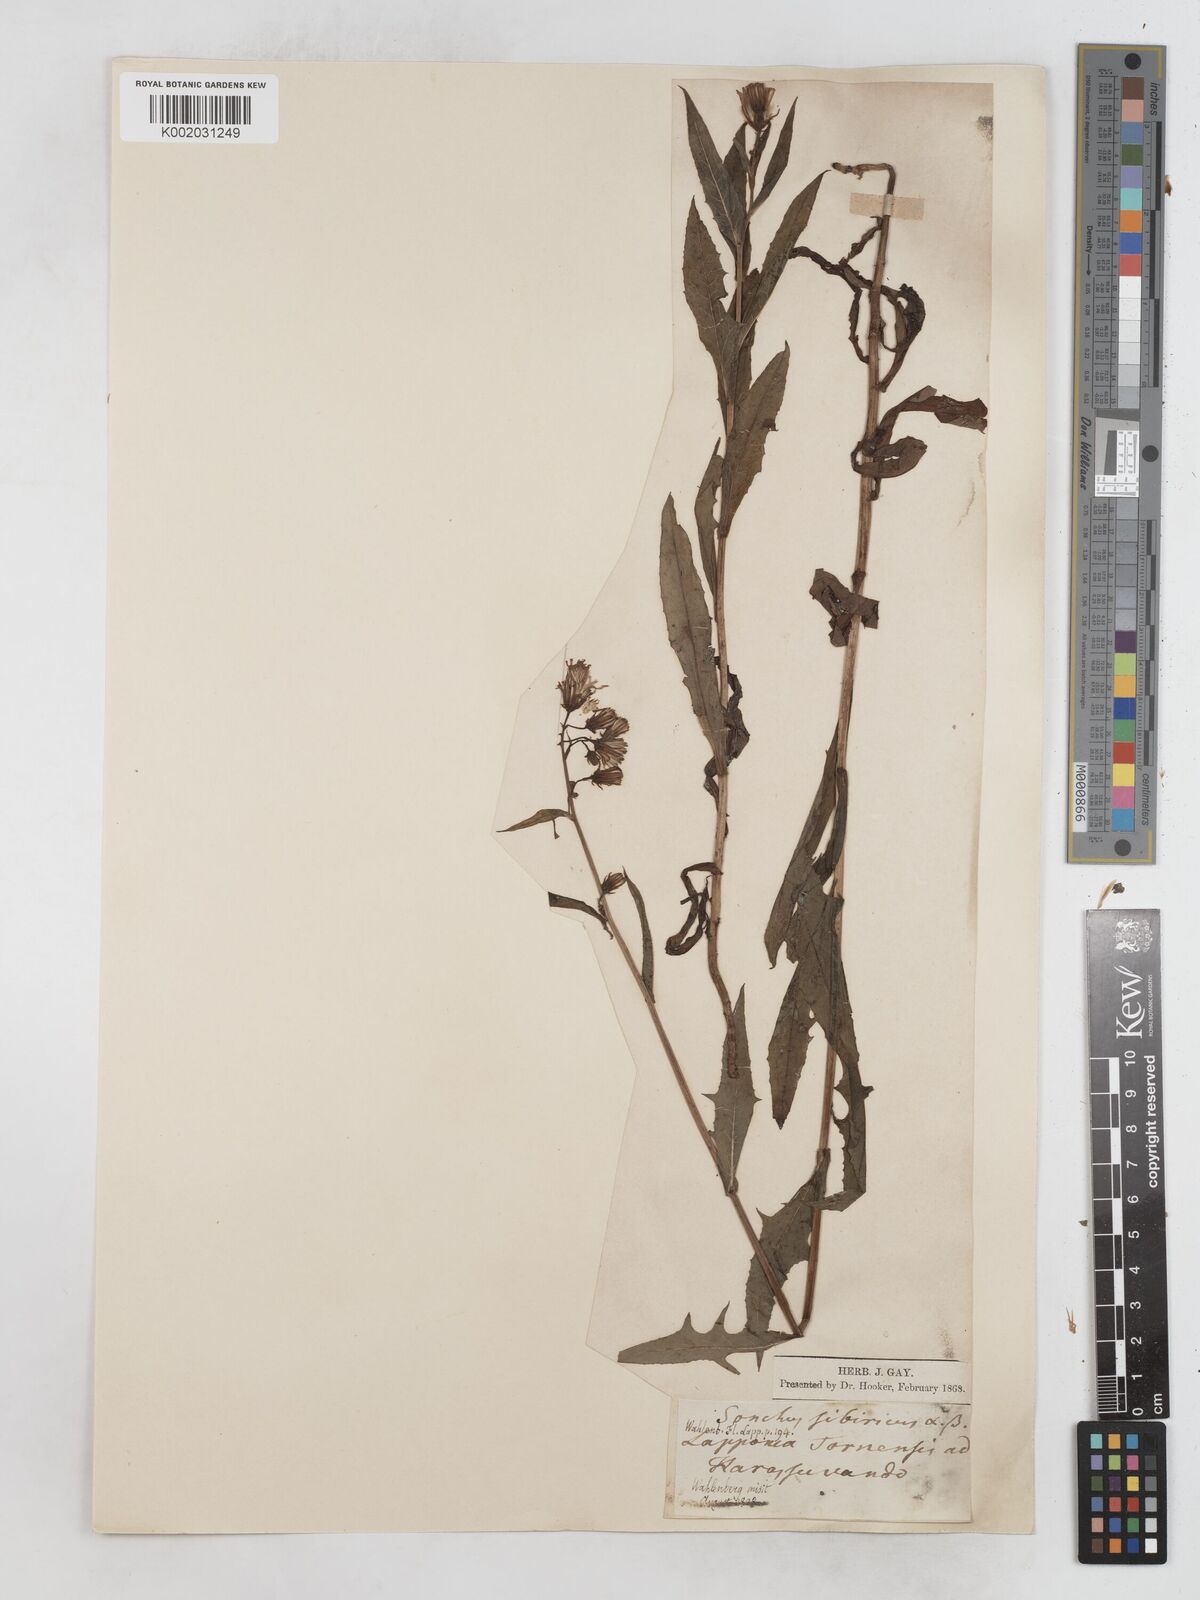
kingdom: Plantae
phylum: Tracheophyta
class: Magnoliopsida
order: Asterales
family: Asteraceae
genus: Lactuca
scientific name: Lactuca sibirica
